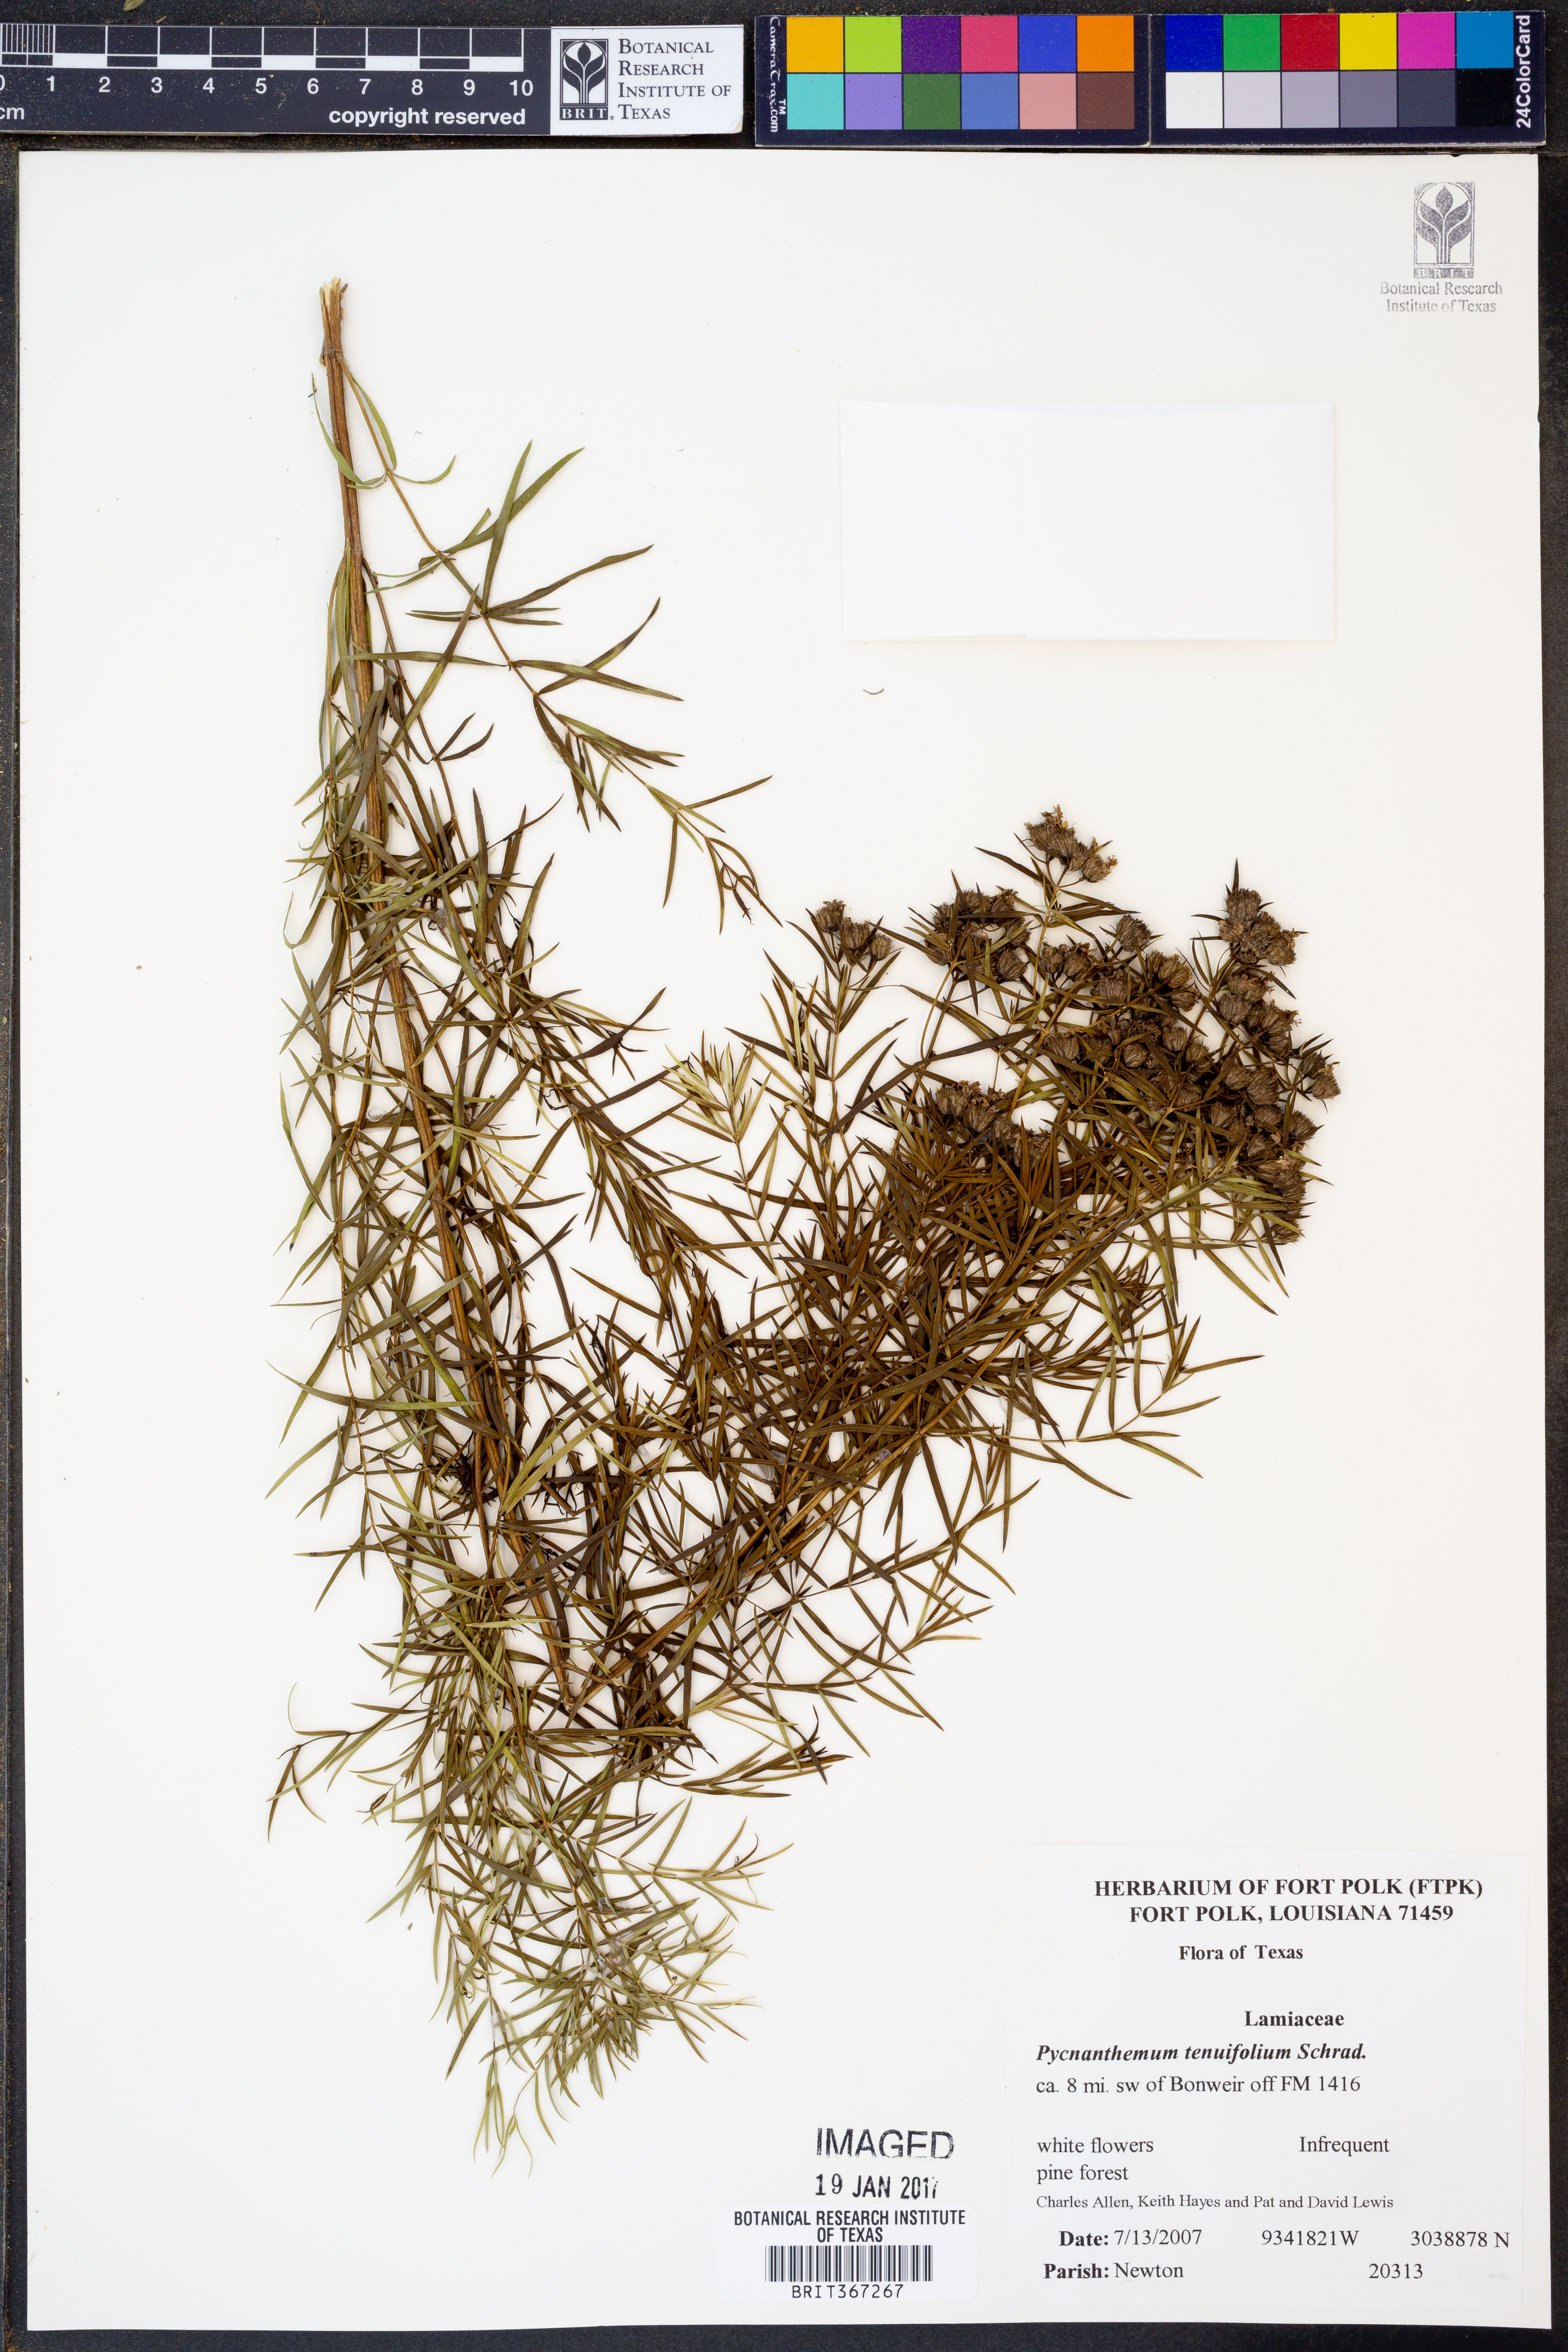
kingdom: Plantae
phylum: Tracheophyta
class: Magnoliopsida
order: Lamiales
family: Lamiaceae
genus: Pycnanthemum
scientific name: Pycnanthemum tenuifolium
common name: Narrow-leaf mountain-mint
